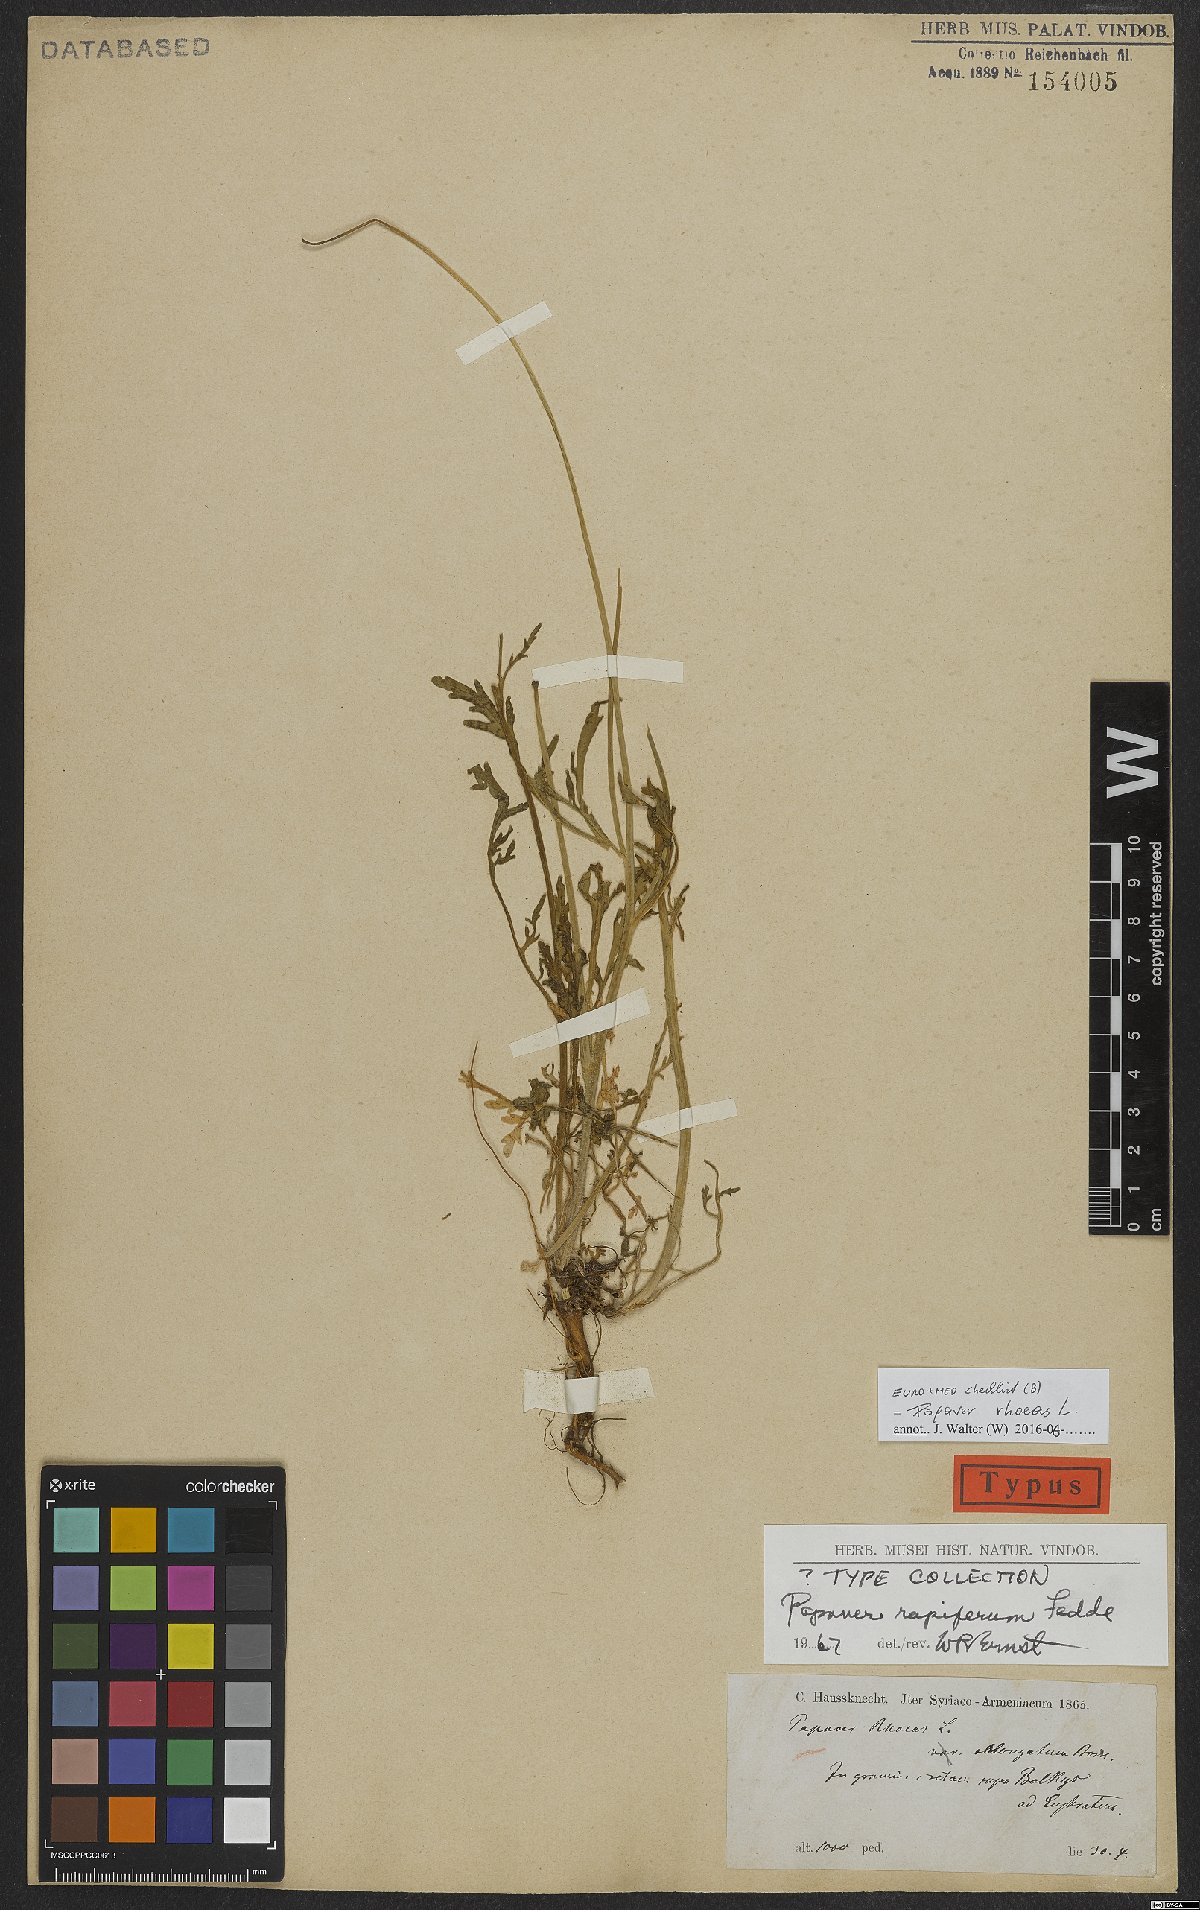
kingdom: Plantae
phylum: Tracheophyta
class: Magnoliopsida
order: Ranunculales
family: Papaveraceae
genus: Papaver
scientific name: Papaver rhoeas
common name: Corn poppy
